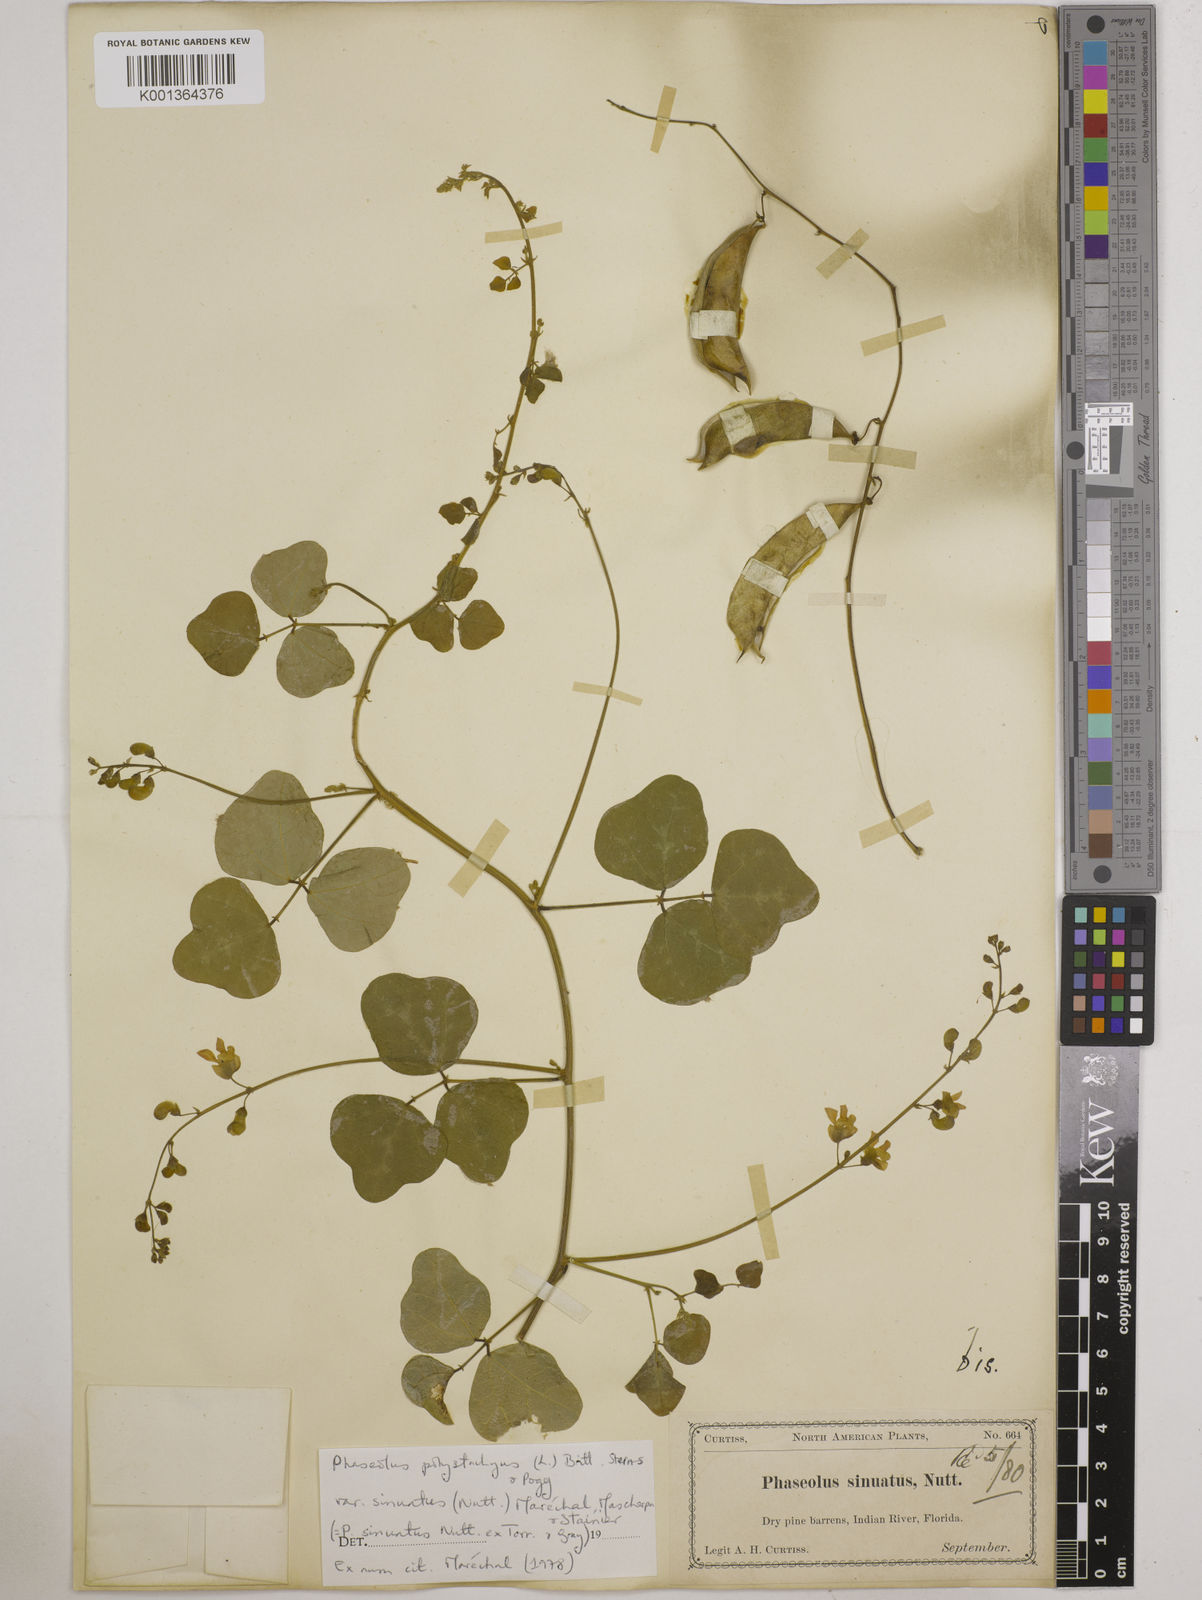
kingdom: Plantae
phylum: Tracheophyta
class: Magnoliopsida
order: Fabales
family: Fabaceae
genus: Phaseolus
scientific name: Phaseolus
